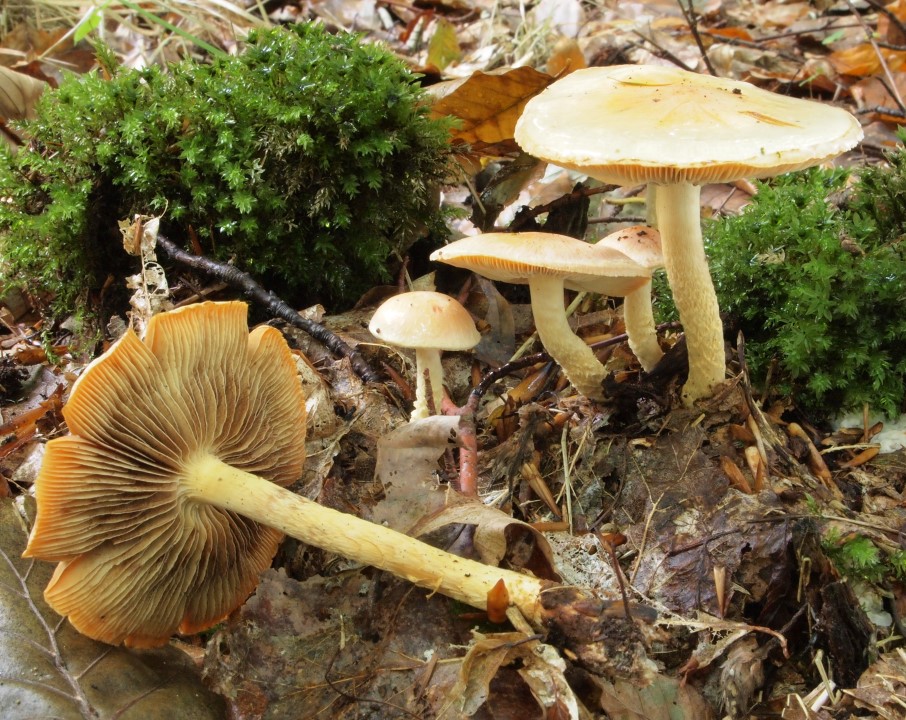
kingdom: Fungi
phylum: Basidiomycota
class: Agaricomycetes
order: Agaricales
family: Strophariaceae
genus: Pyrrhulomyces
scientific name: Pyrrhulomyces astragalinus
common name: safran-skælhat
